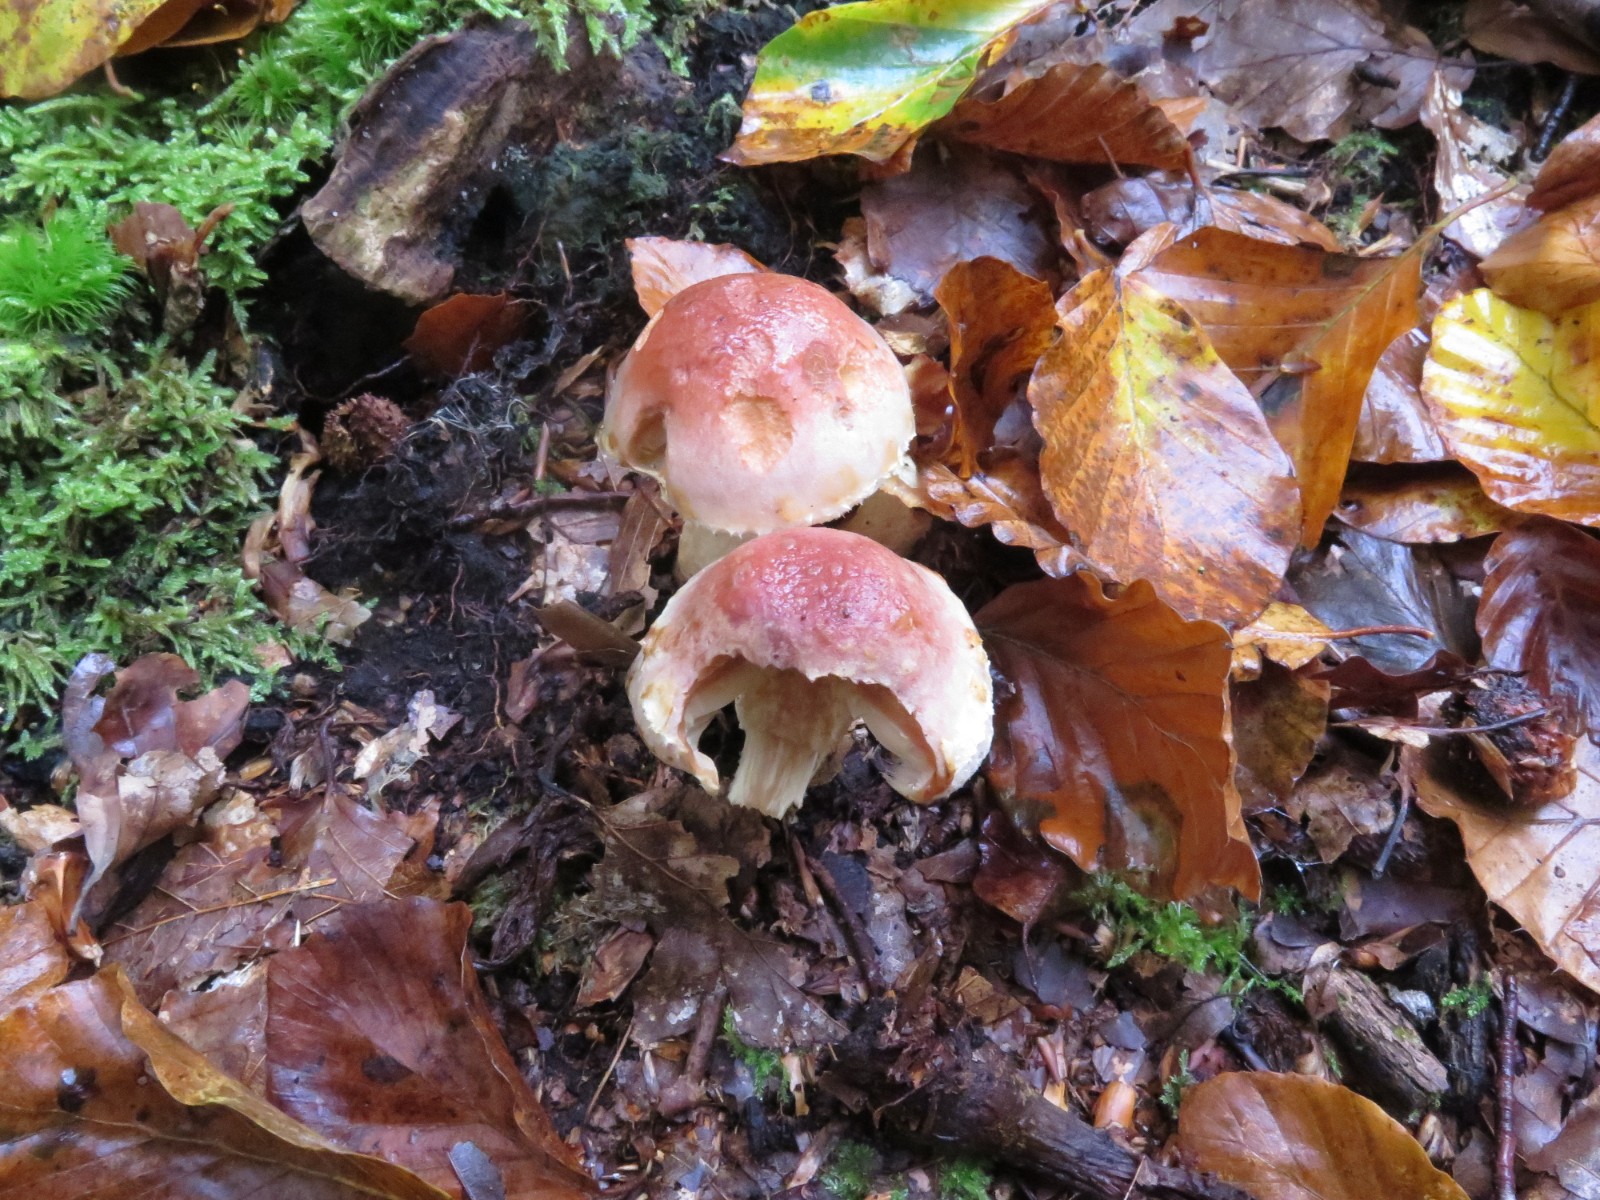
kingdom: Fungi
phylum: Basidiomycota
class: Agaricomycetes
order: Agaricales
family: Strophariaceae
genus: Hypholoma
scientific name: Hypholoma lateritium
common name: teglrød svovlhat
